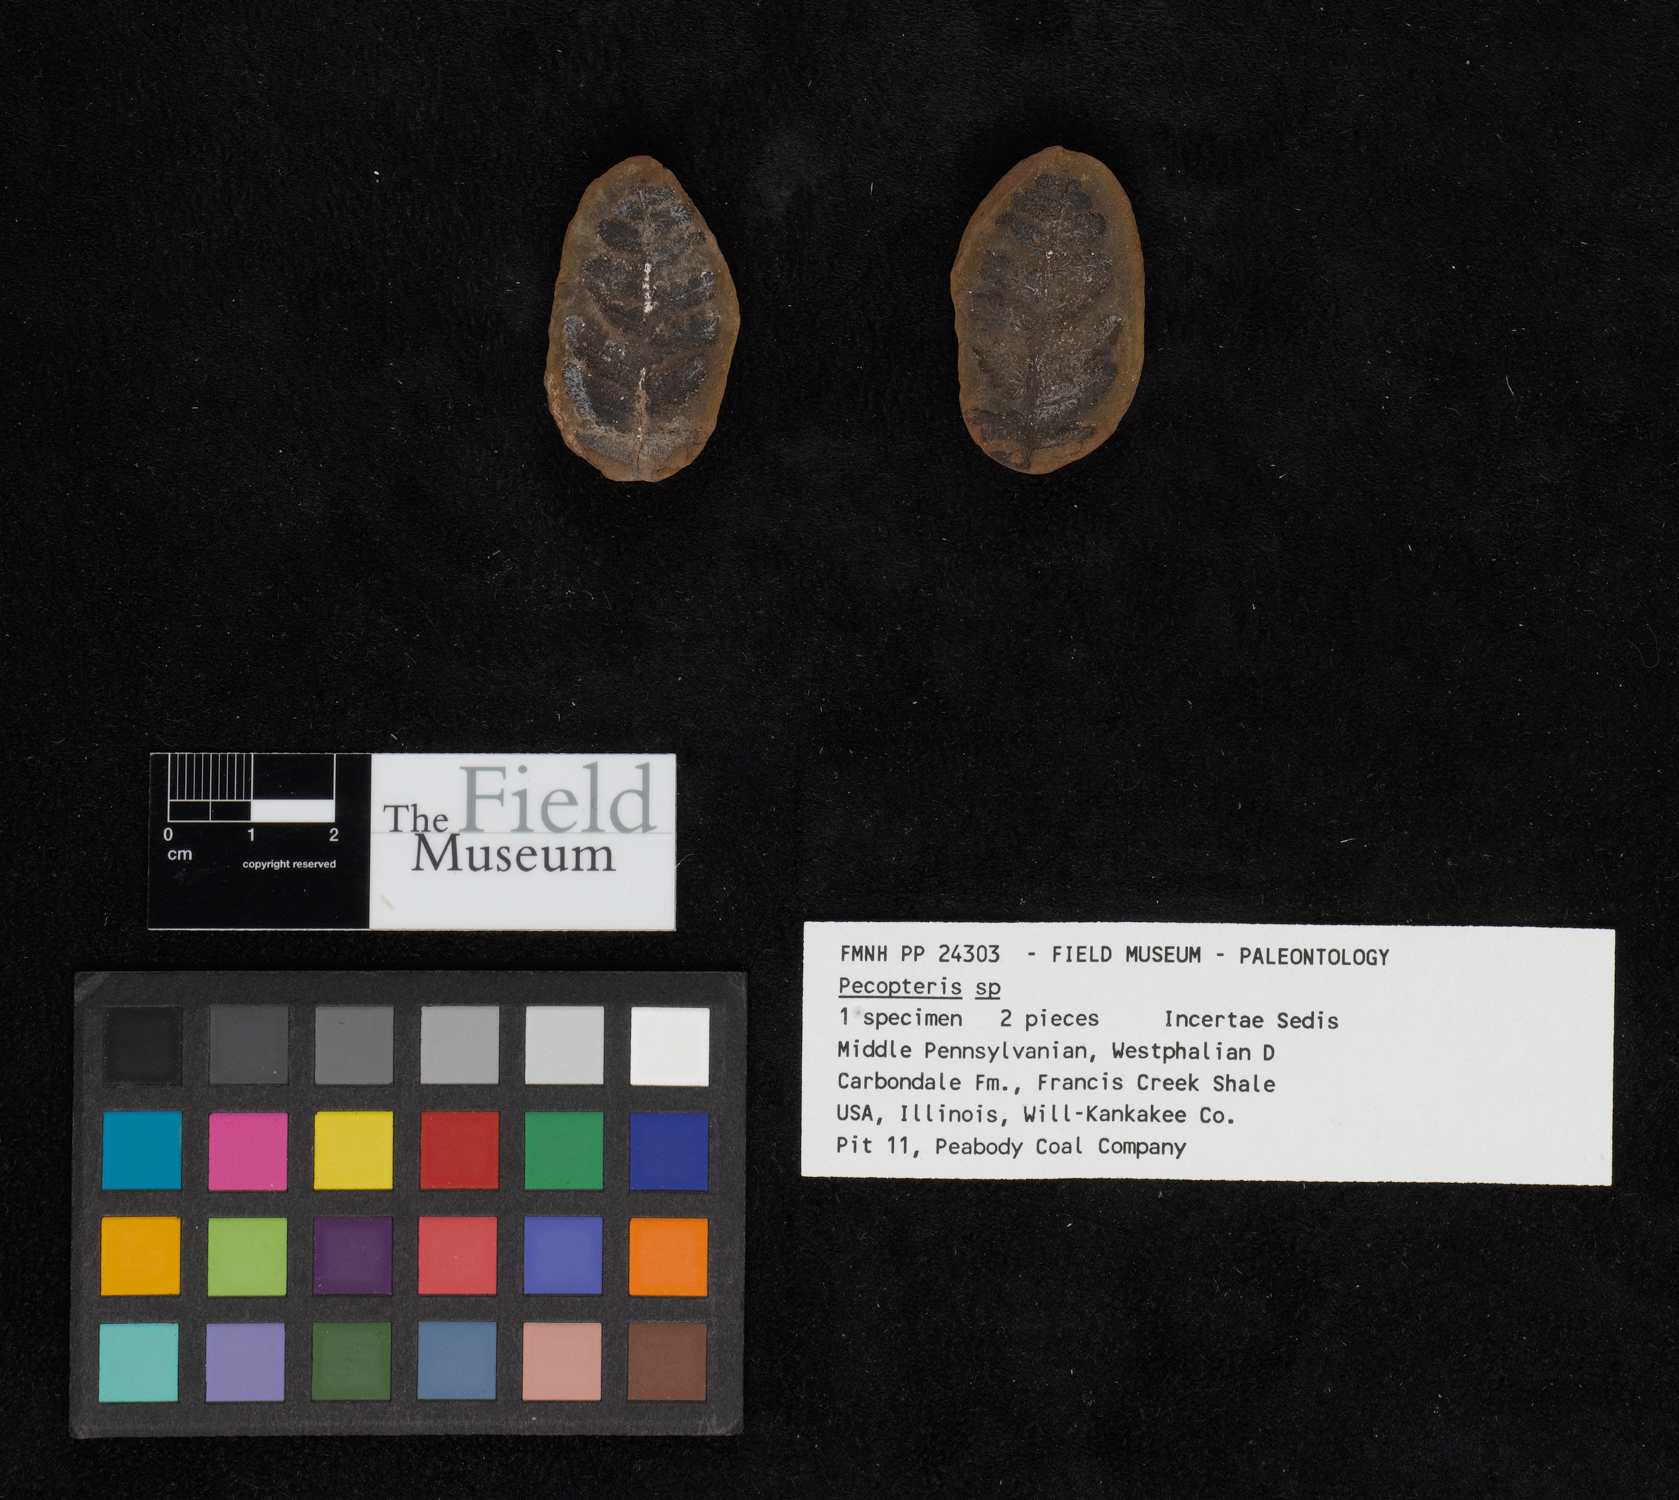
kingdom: Plantae
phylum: Tracheophyta
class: Polypodiopsida
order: Marattiales
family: Asterothecaceae
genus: Pecopteris
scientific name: Pecopteris
